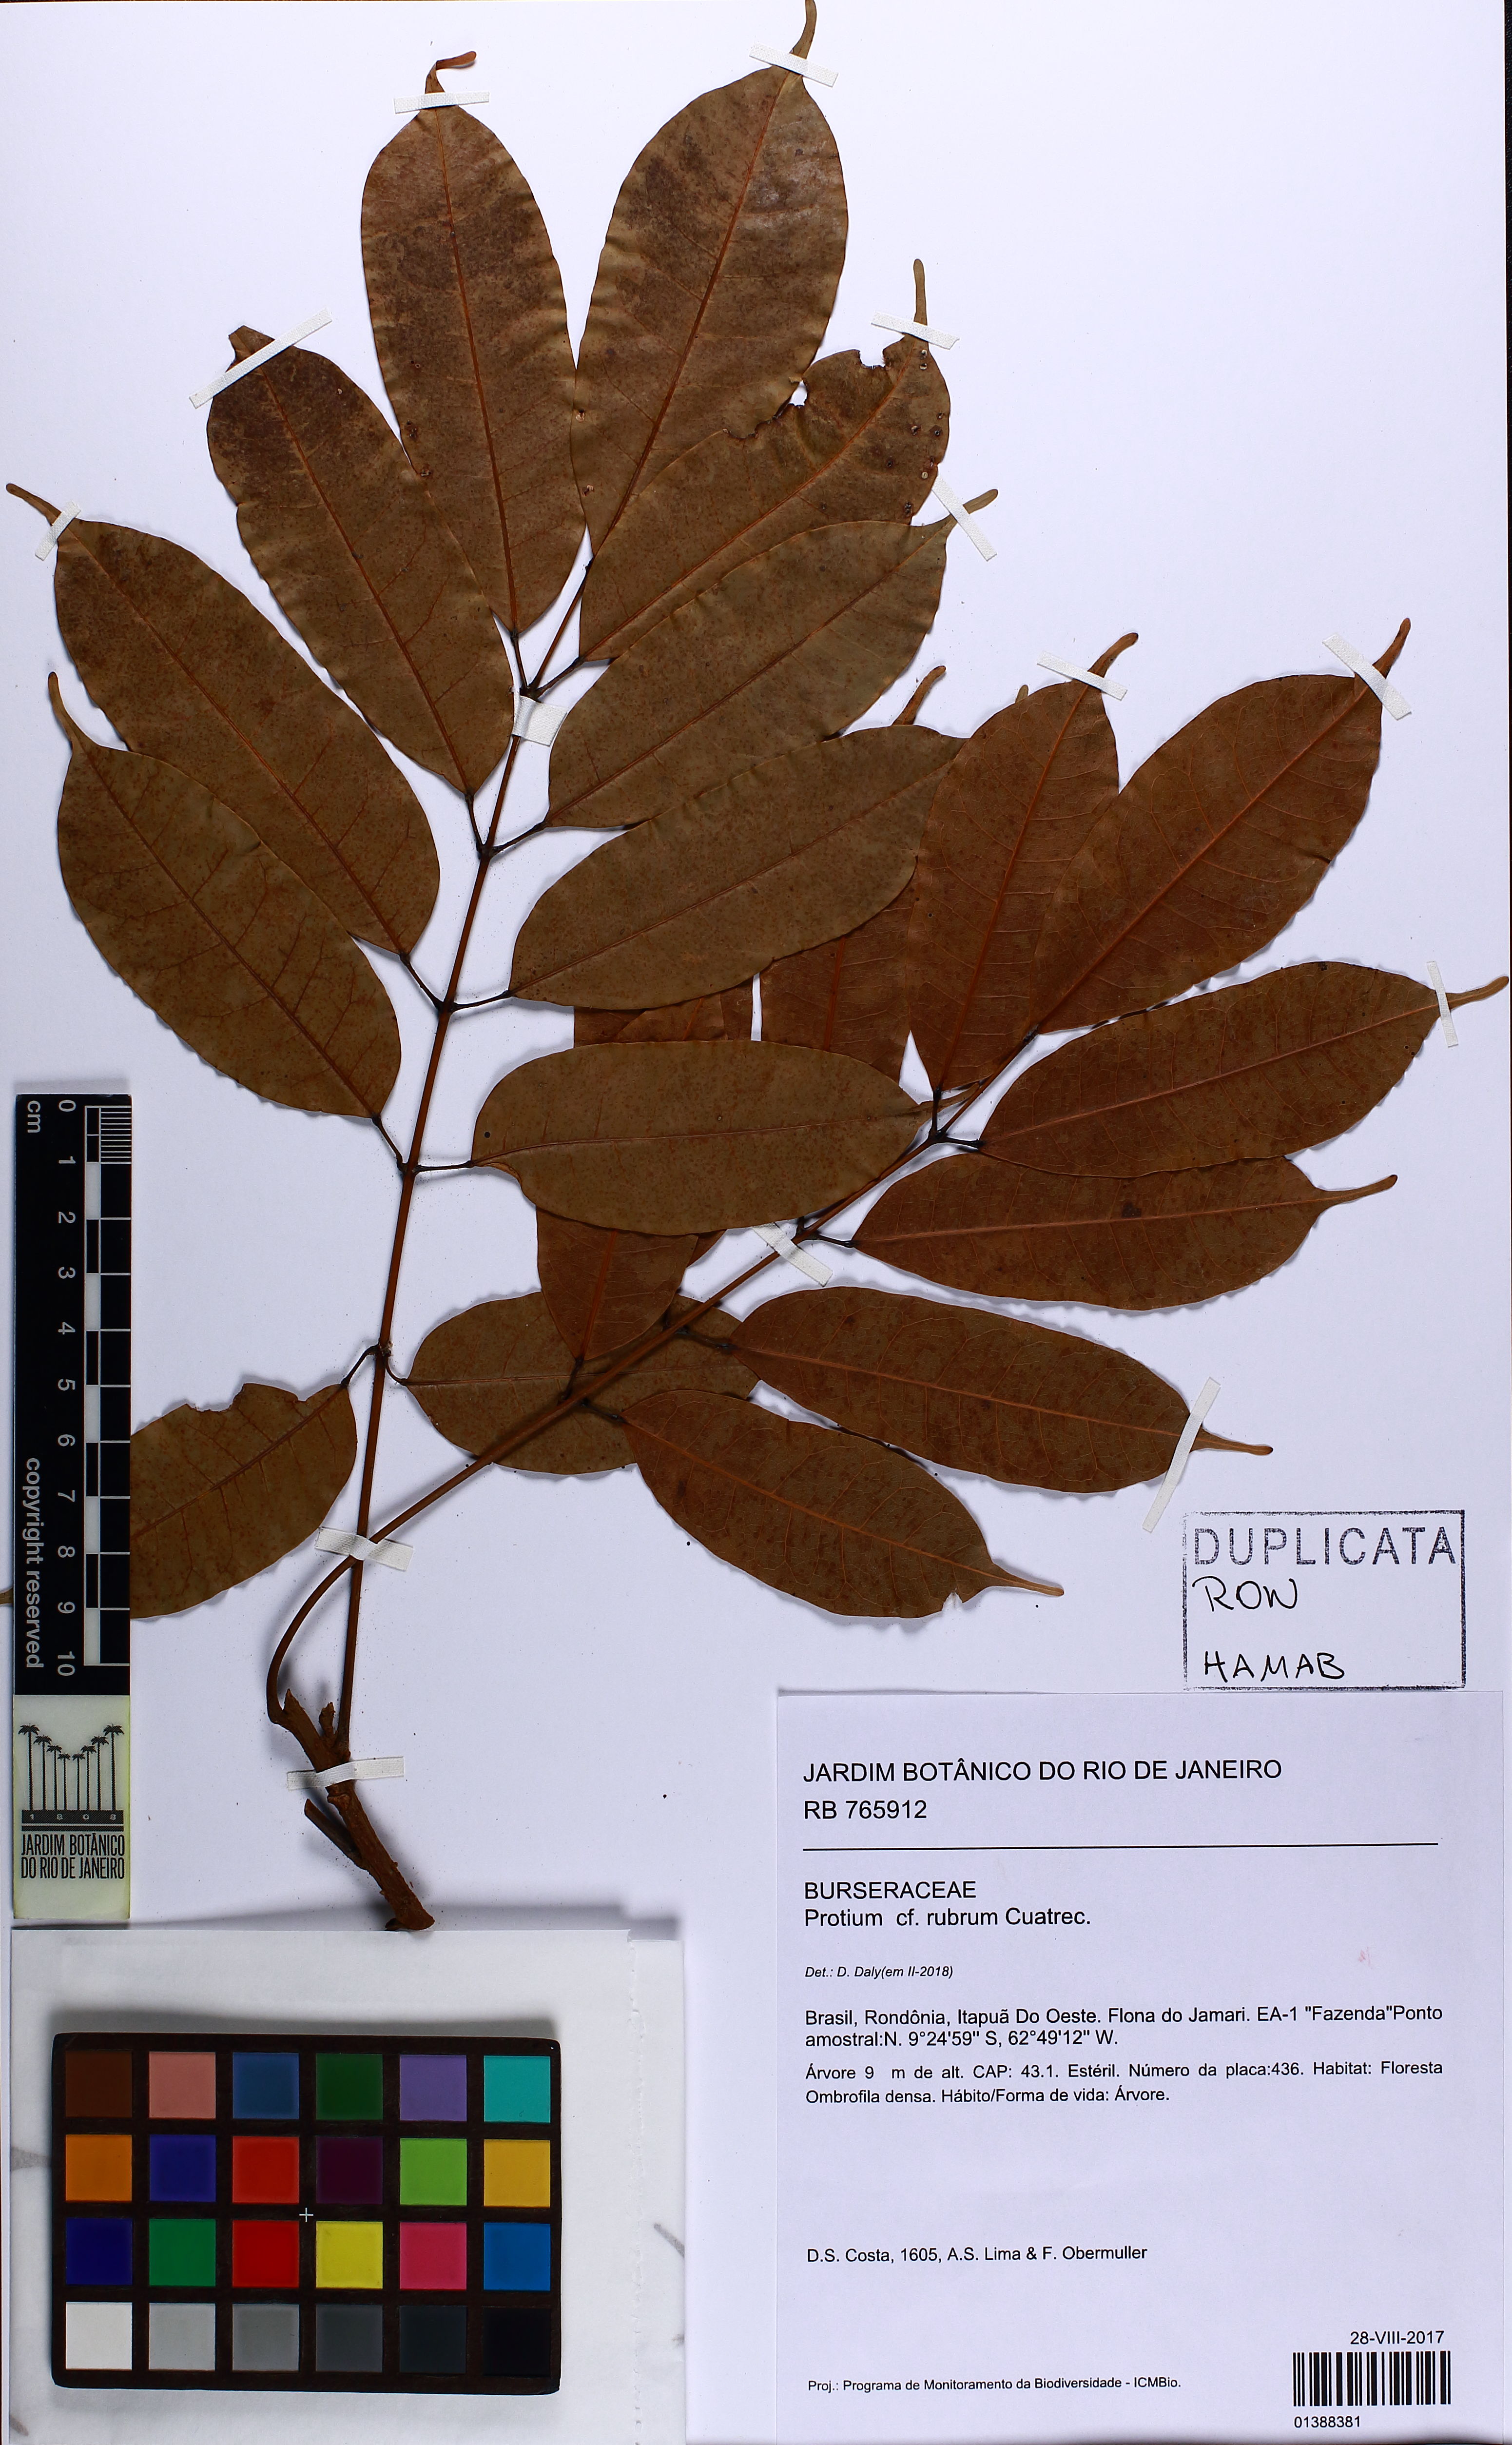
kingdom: Plantae
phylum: Tracheophyta
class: Magnoliopsida
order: Sapindales
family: Burseraceae
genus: Protium
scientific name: Protium rubrum
